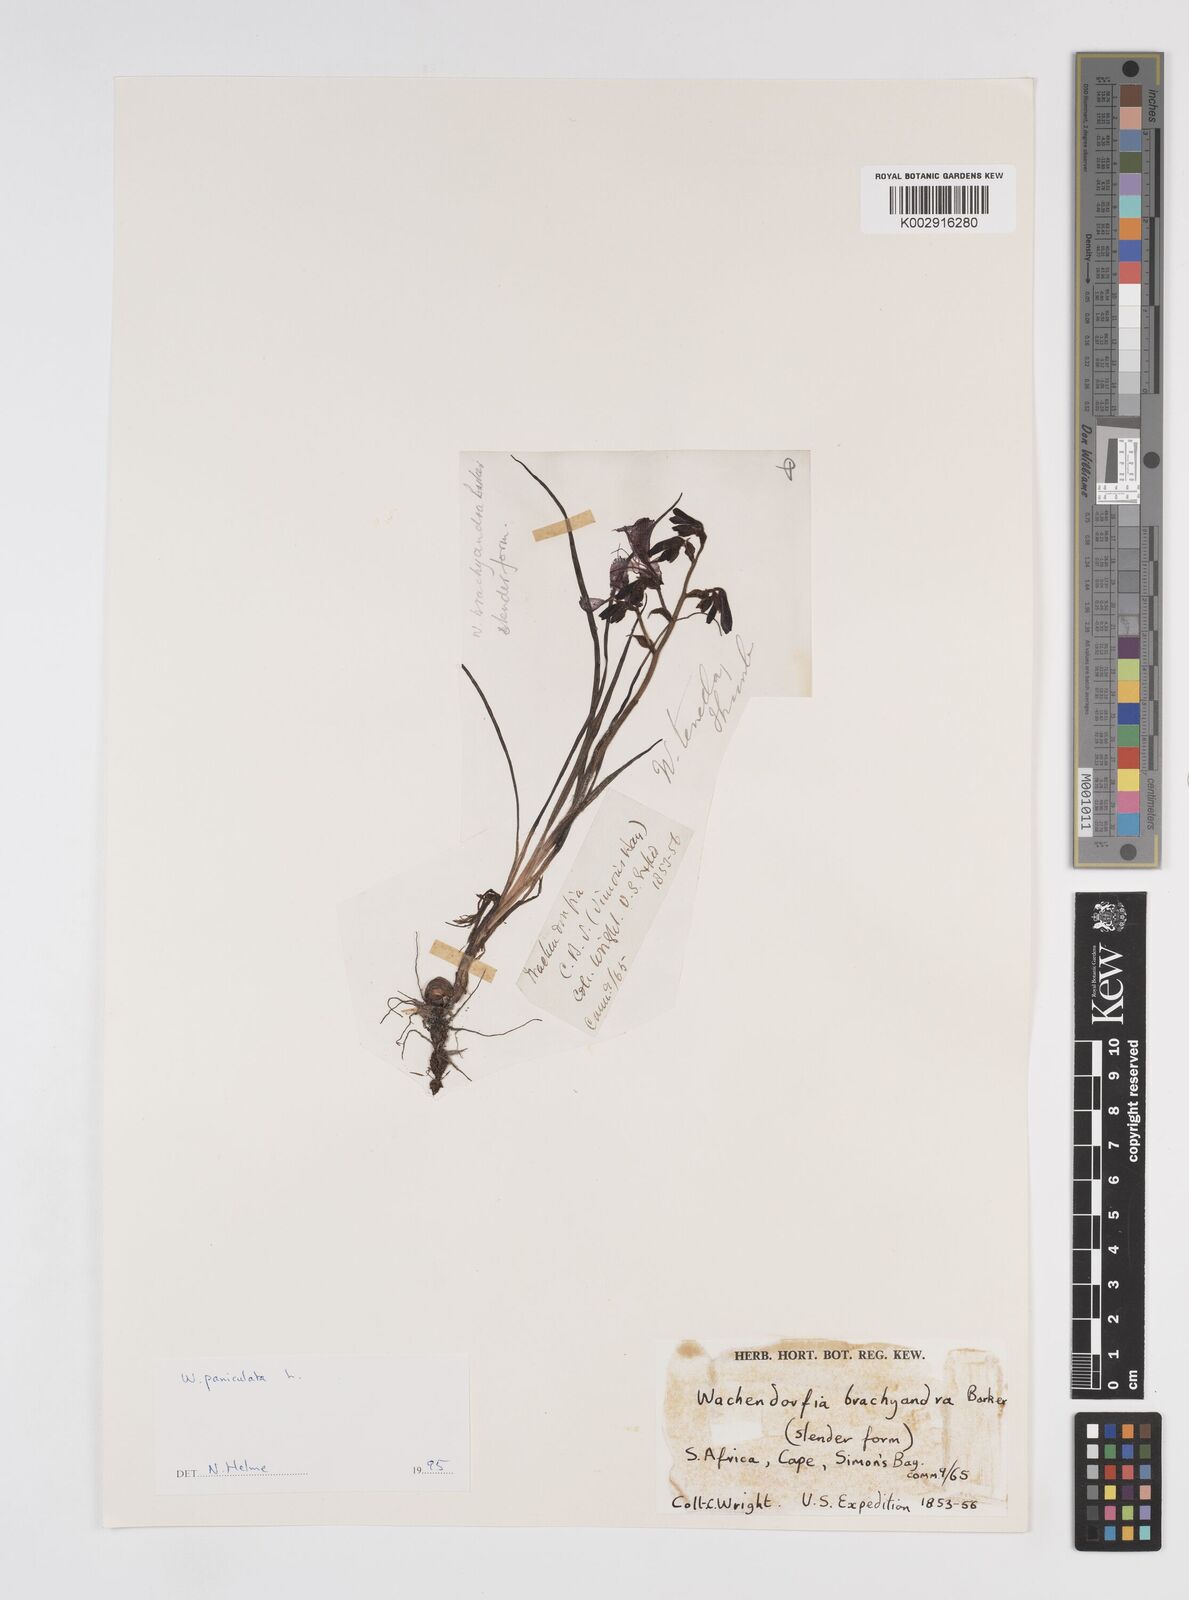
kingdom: Plantae
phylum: Tracheophyta
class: Liliopsida
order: Commelinales
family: Haemodoraceae
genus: Wachendorfia
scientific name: Wachendorfia paniculata
